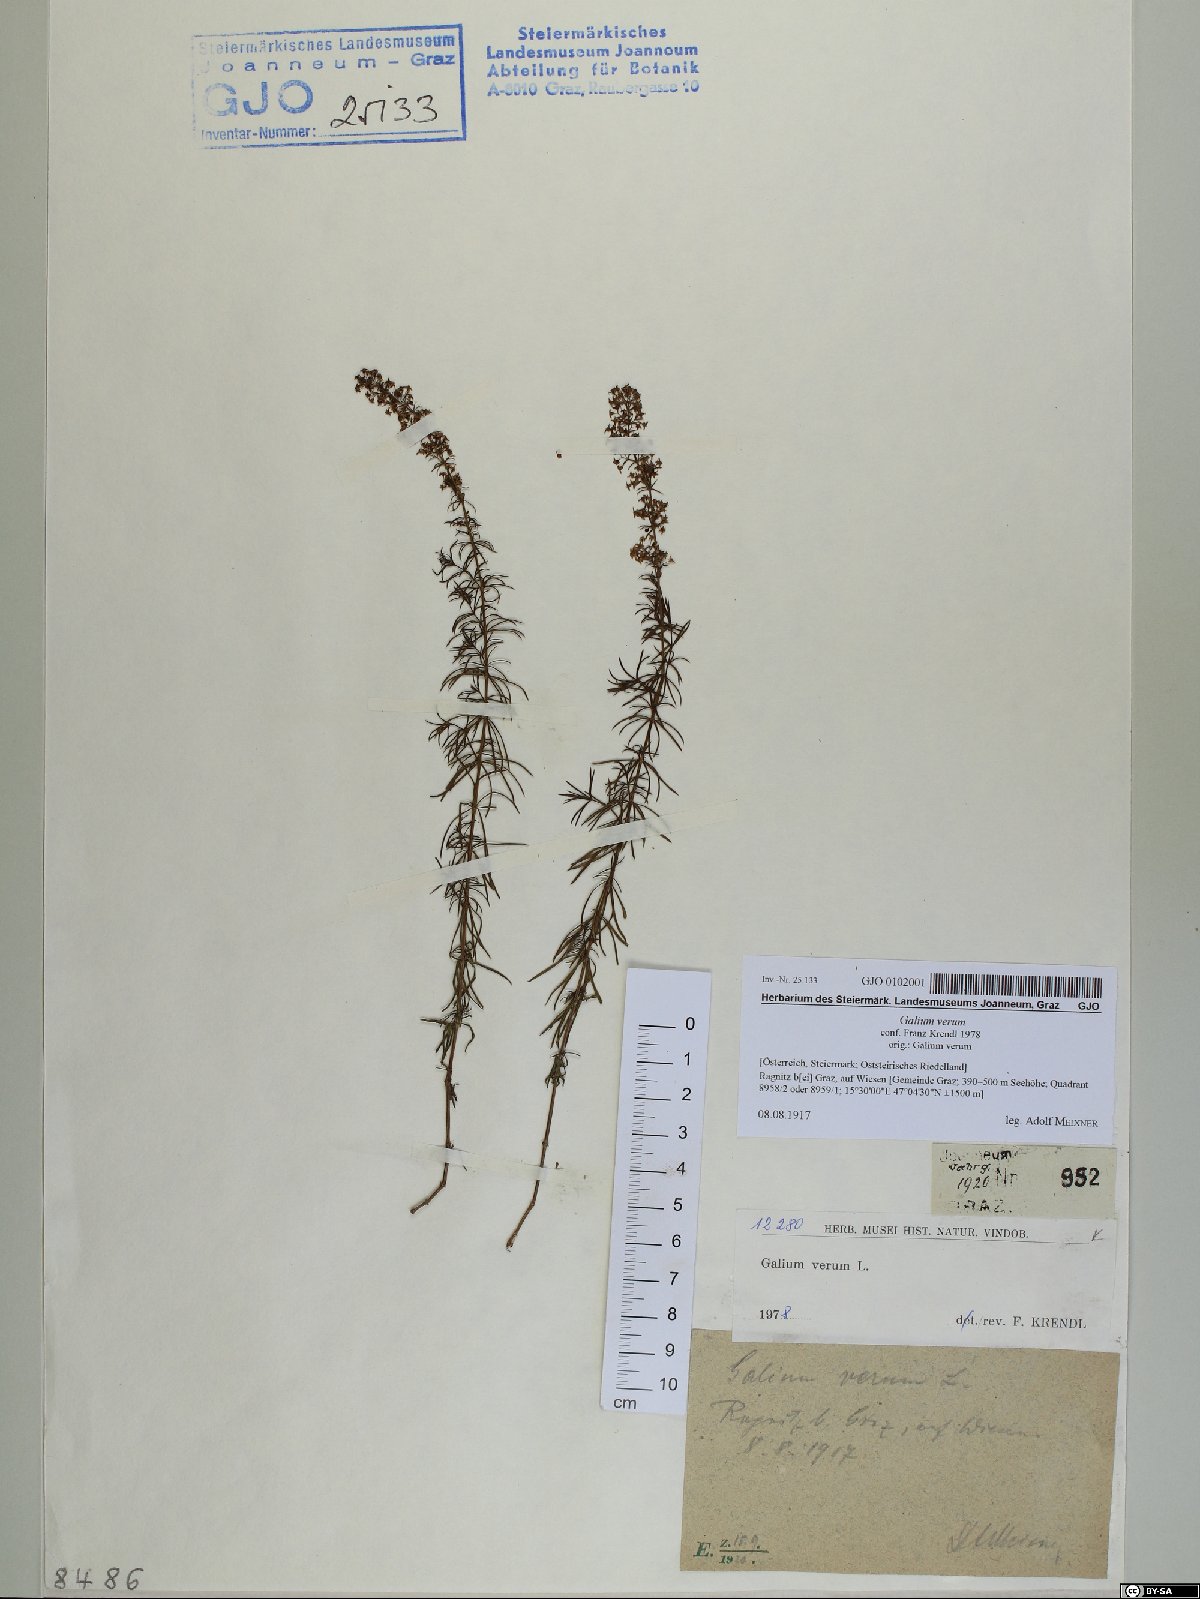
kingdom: Plantae
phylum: Tracheophyta
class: Magnoliopsida
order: Gentianales
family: Rubiaceae
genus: Galium
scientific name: Galium verum
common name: Lady's bedstraw
